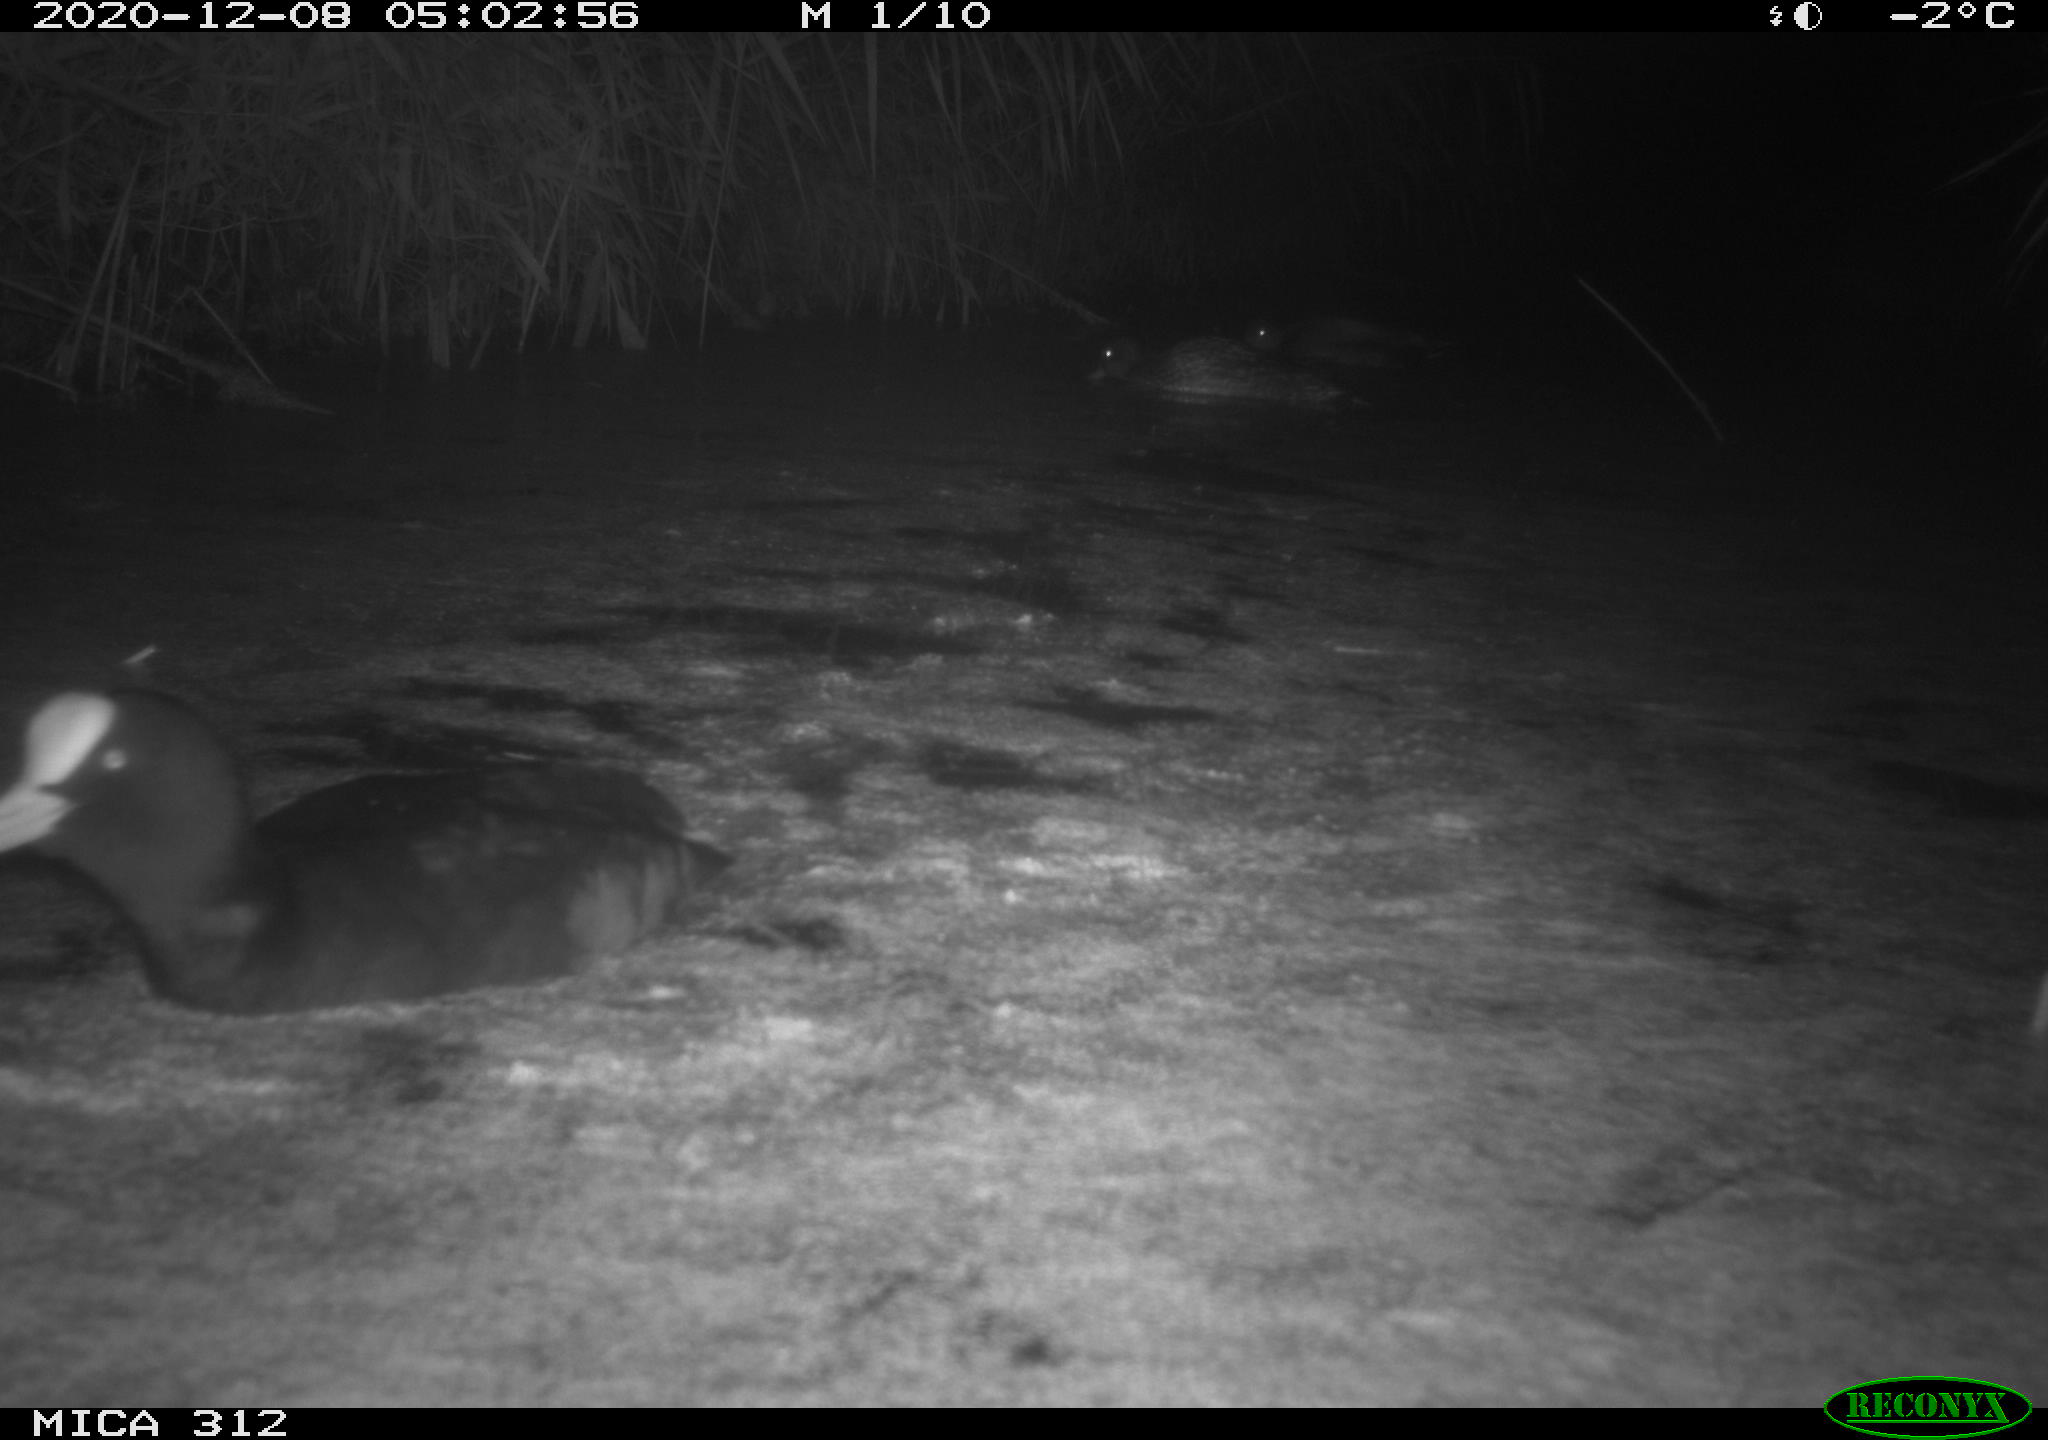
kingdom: Animalia
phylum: Chordata
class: Aves
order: Anseriformes
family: Anatidae
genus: Mareca
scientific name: Mareca strepera
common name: Gadwall
